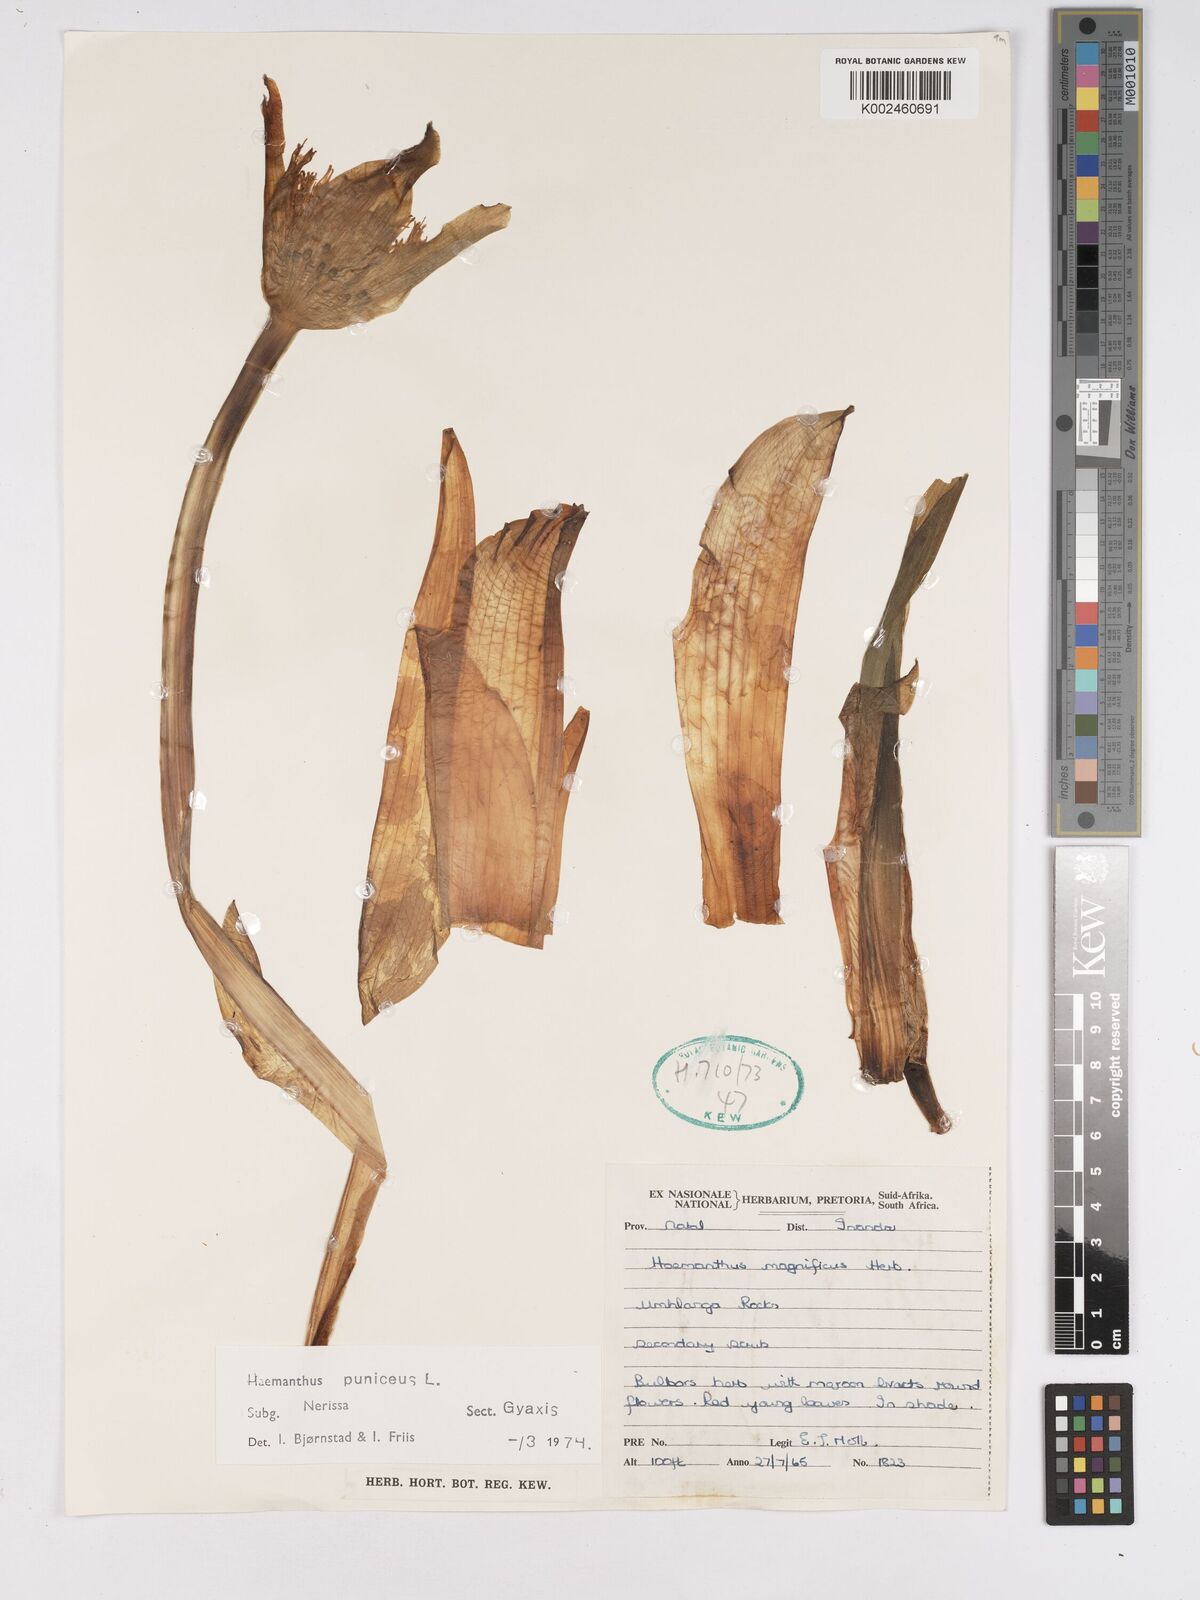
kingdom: Plantae
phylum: Tracheophyta
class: Liliopsida
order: Asparagales
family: Amaryllidaceae
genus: Scadoxus
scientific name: Scadoxus puniceus
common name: Royal-paintbrush
